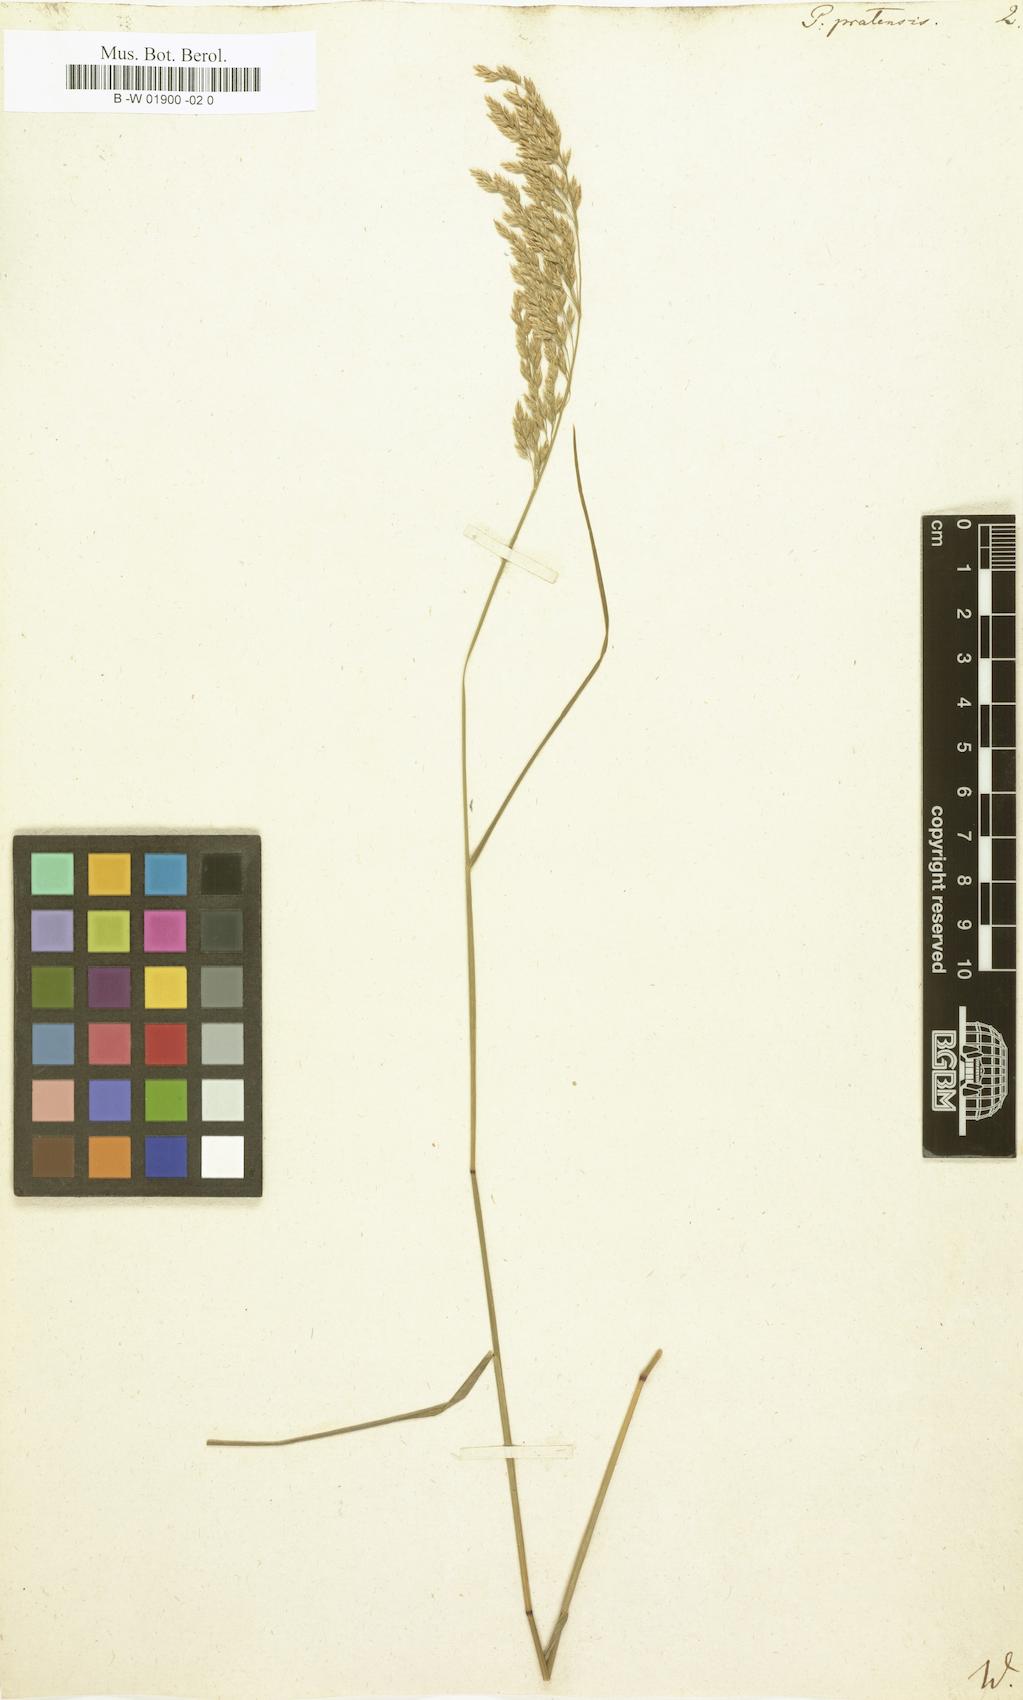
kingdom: Plantae
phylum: Tracheophyta
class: Liliopsida
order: Poales
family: Poaceae
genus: Poa
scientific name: Poa pratensis
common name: Kentucky bluegrass
